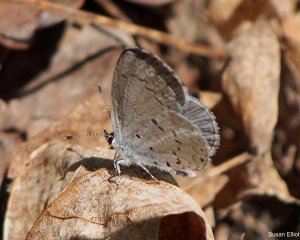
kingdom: Animalia
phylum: Arthropoda
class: Insecta
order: Lepidoptera
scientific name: Lepidoptera
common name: Butterflies
